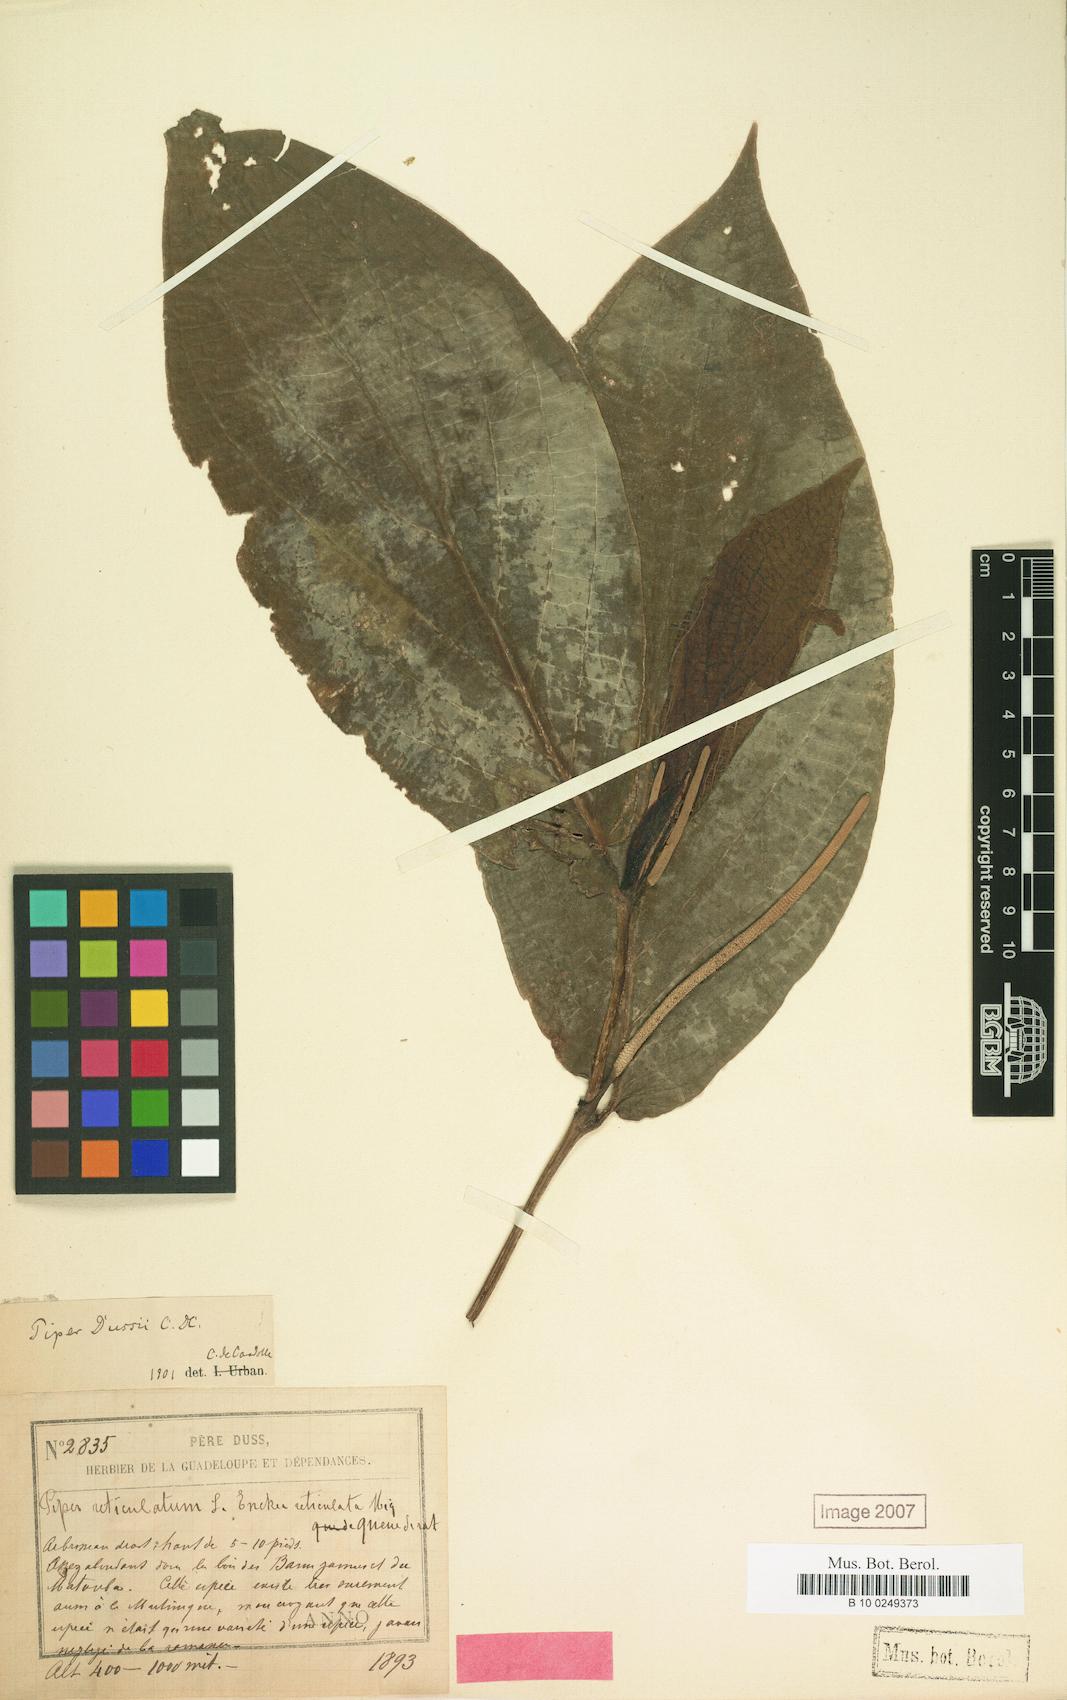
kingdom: Plantae
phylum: Tracheophyta
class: Magnoliopsida
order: Piperales
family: Piperaceae
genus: Piper
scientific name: Piper dussii
